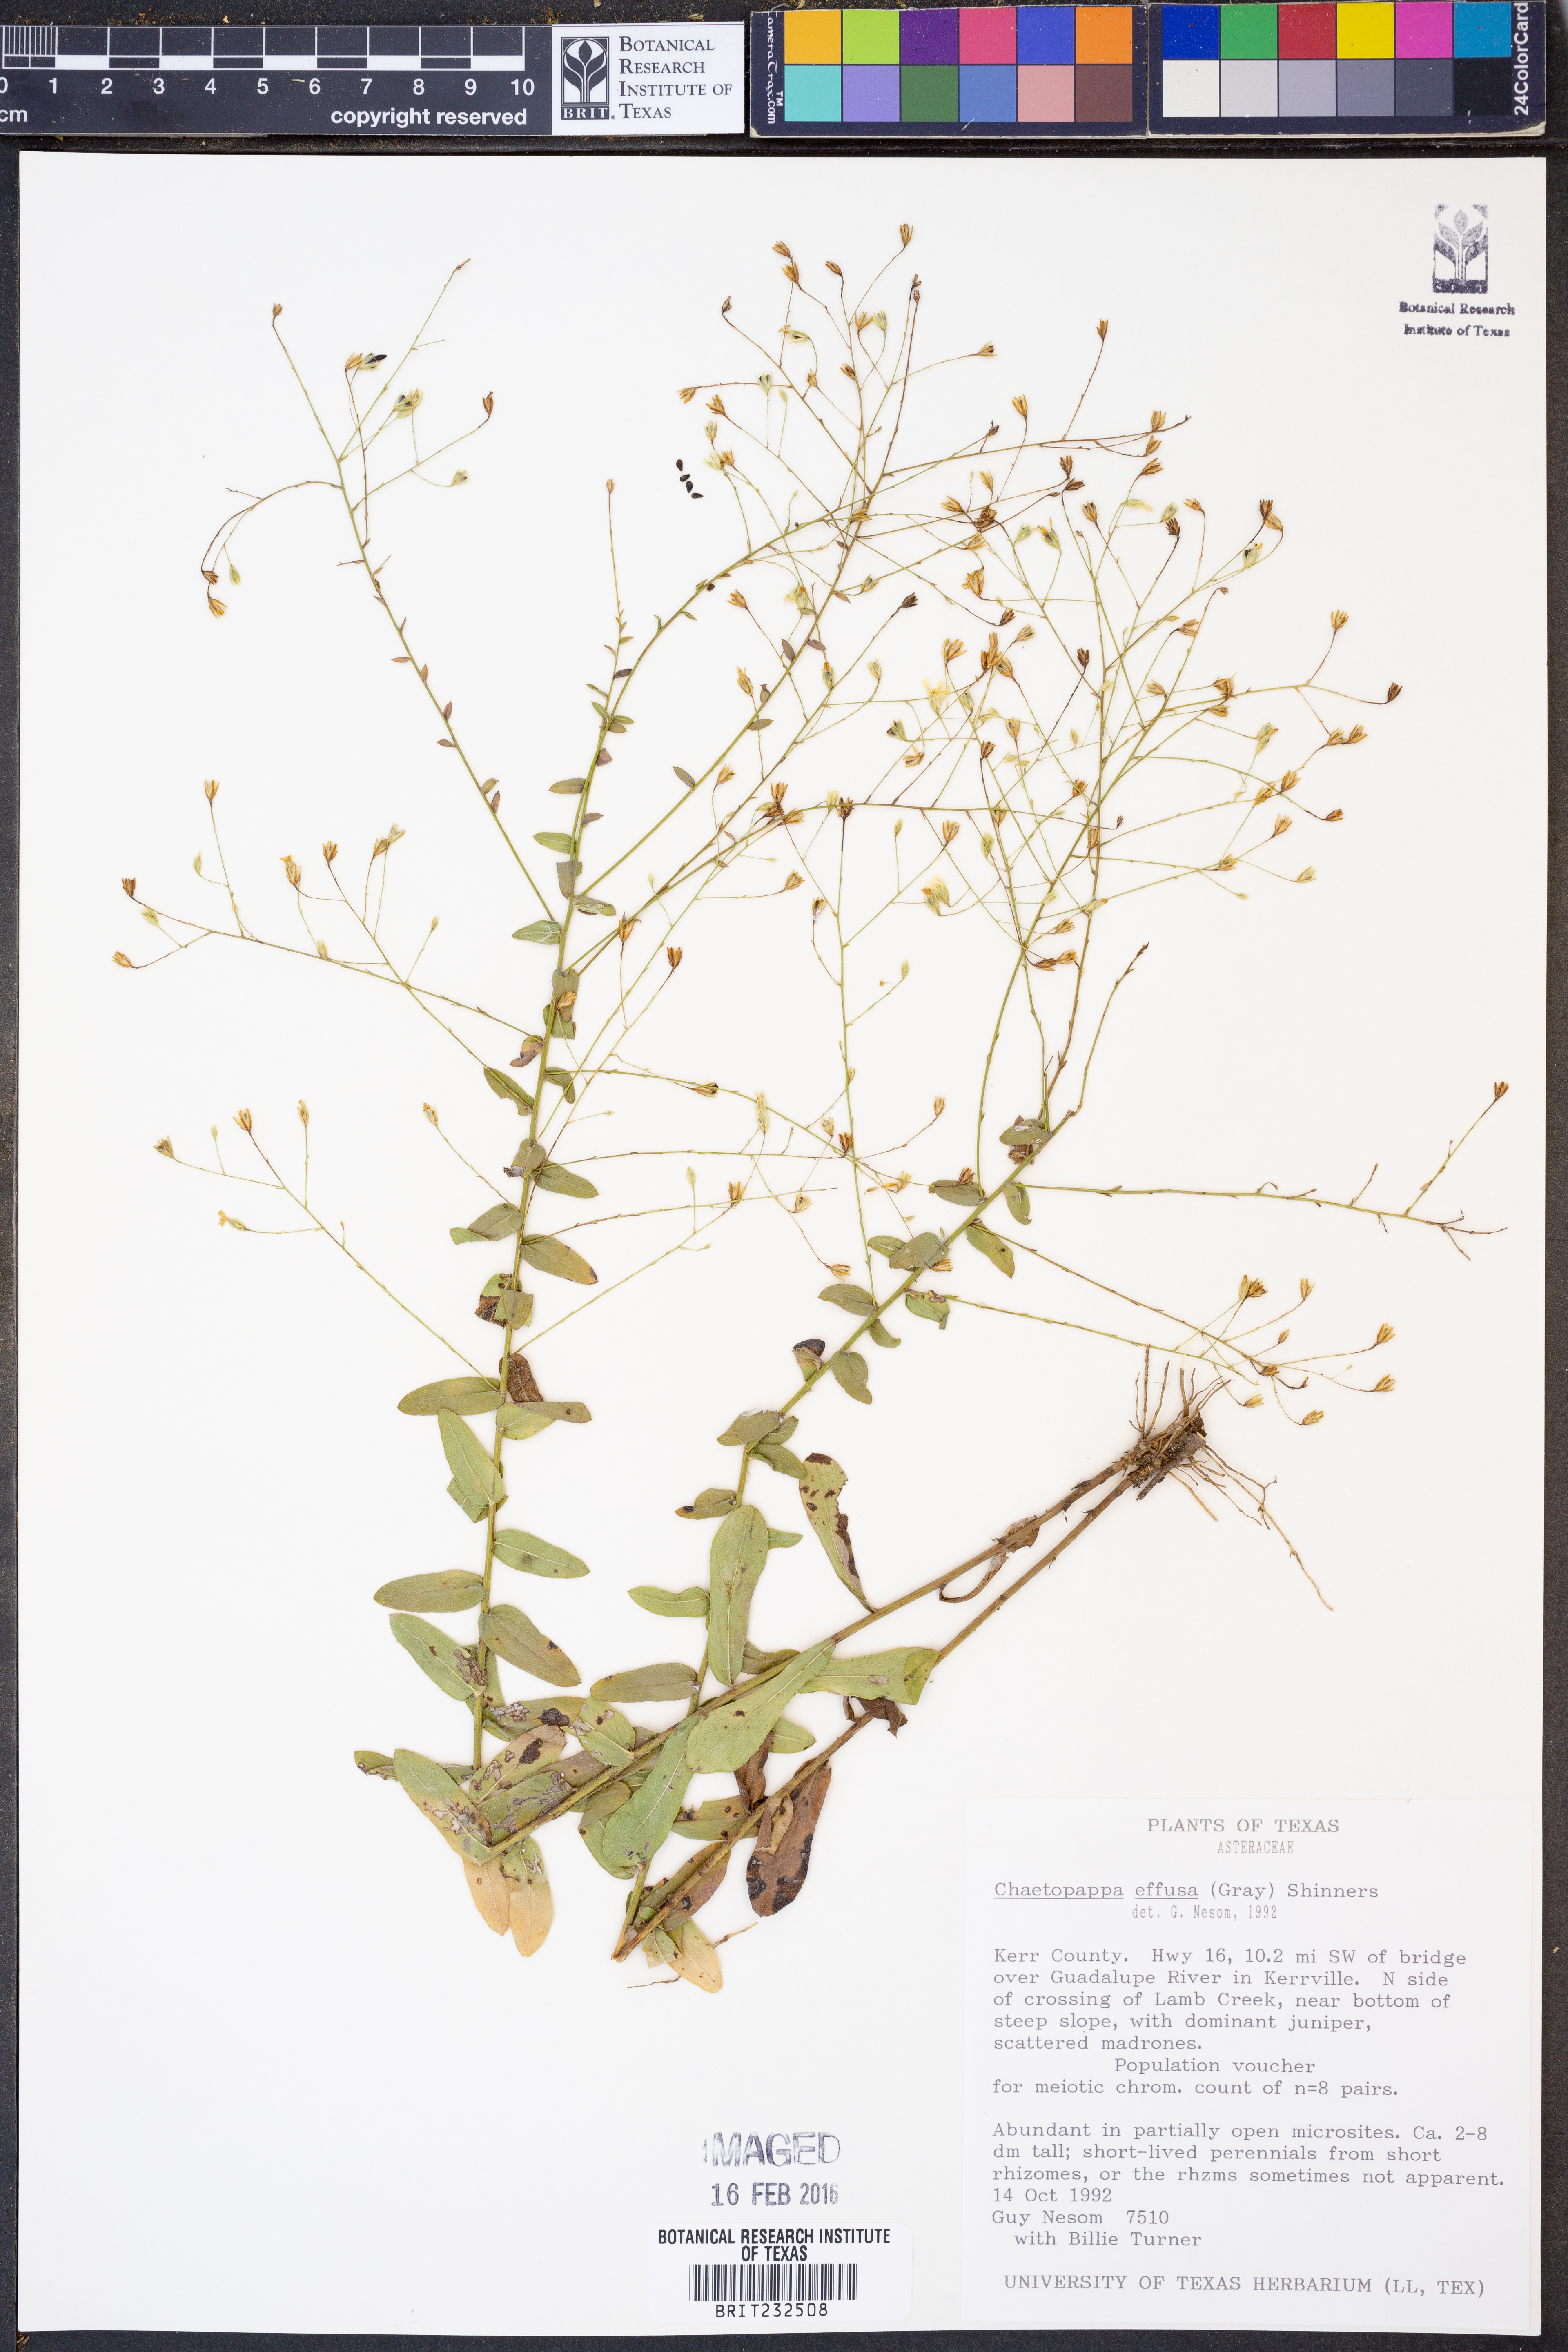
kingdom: Plantae
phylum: Tracheophyta
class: Magnoliopsida
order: Asterales
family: Asteraceae
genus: Chaetopappa
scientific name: Chaetopappa effusa
